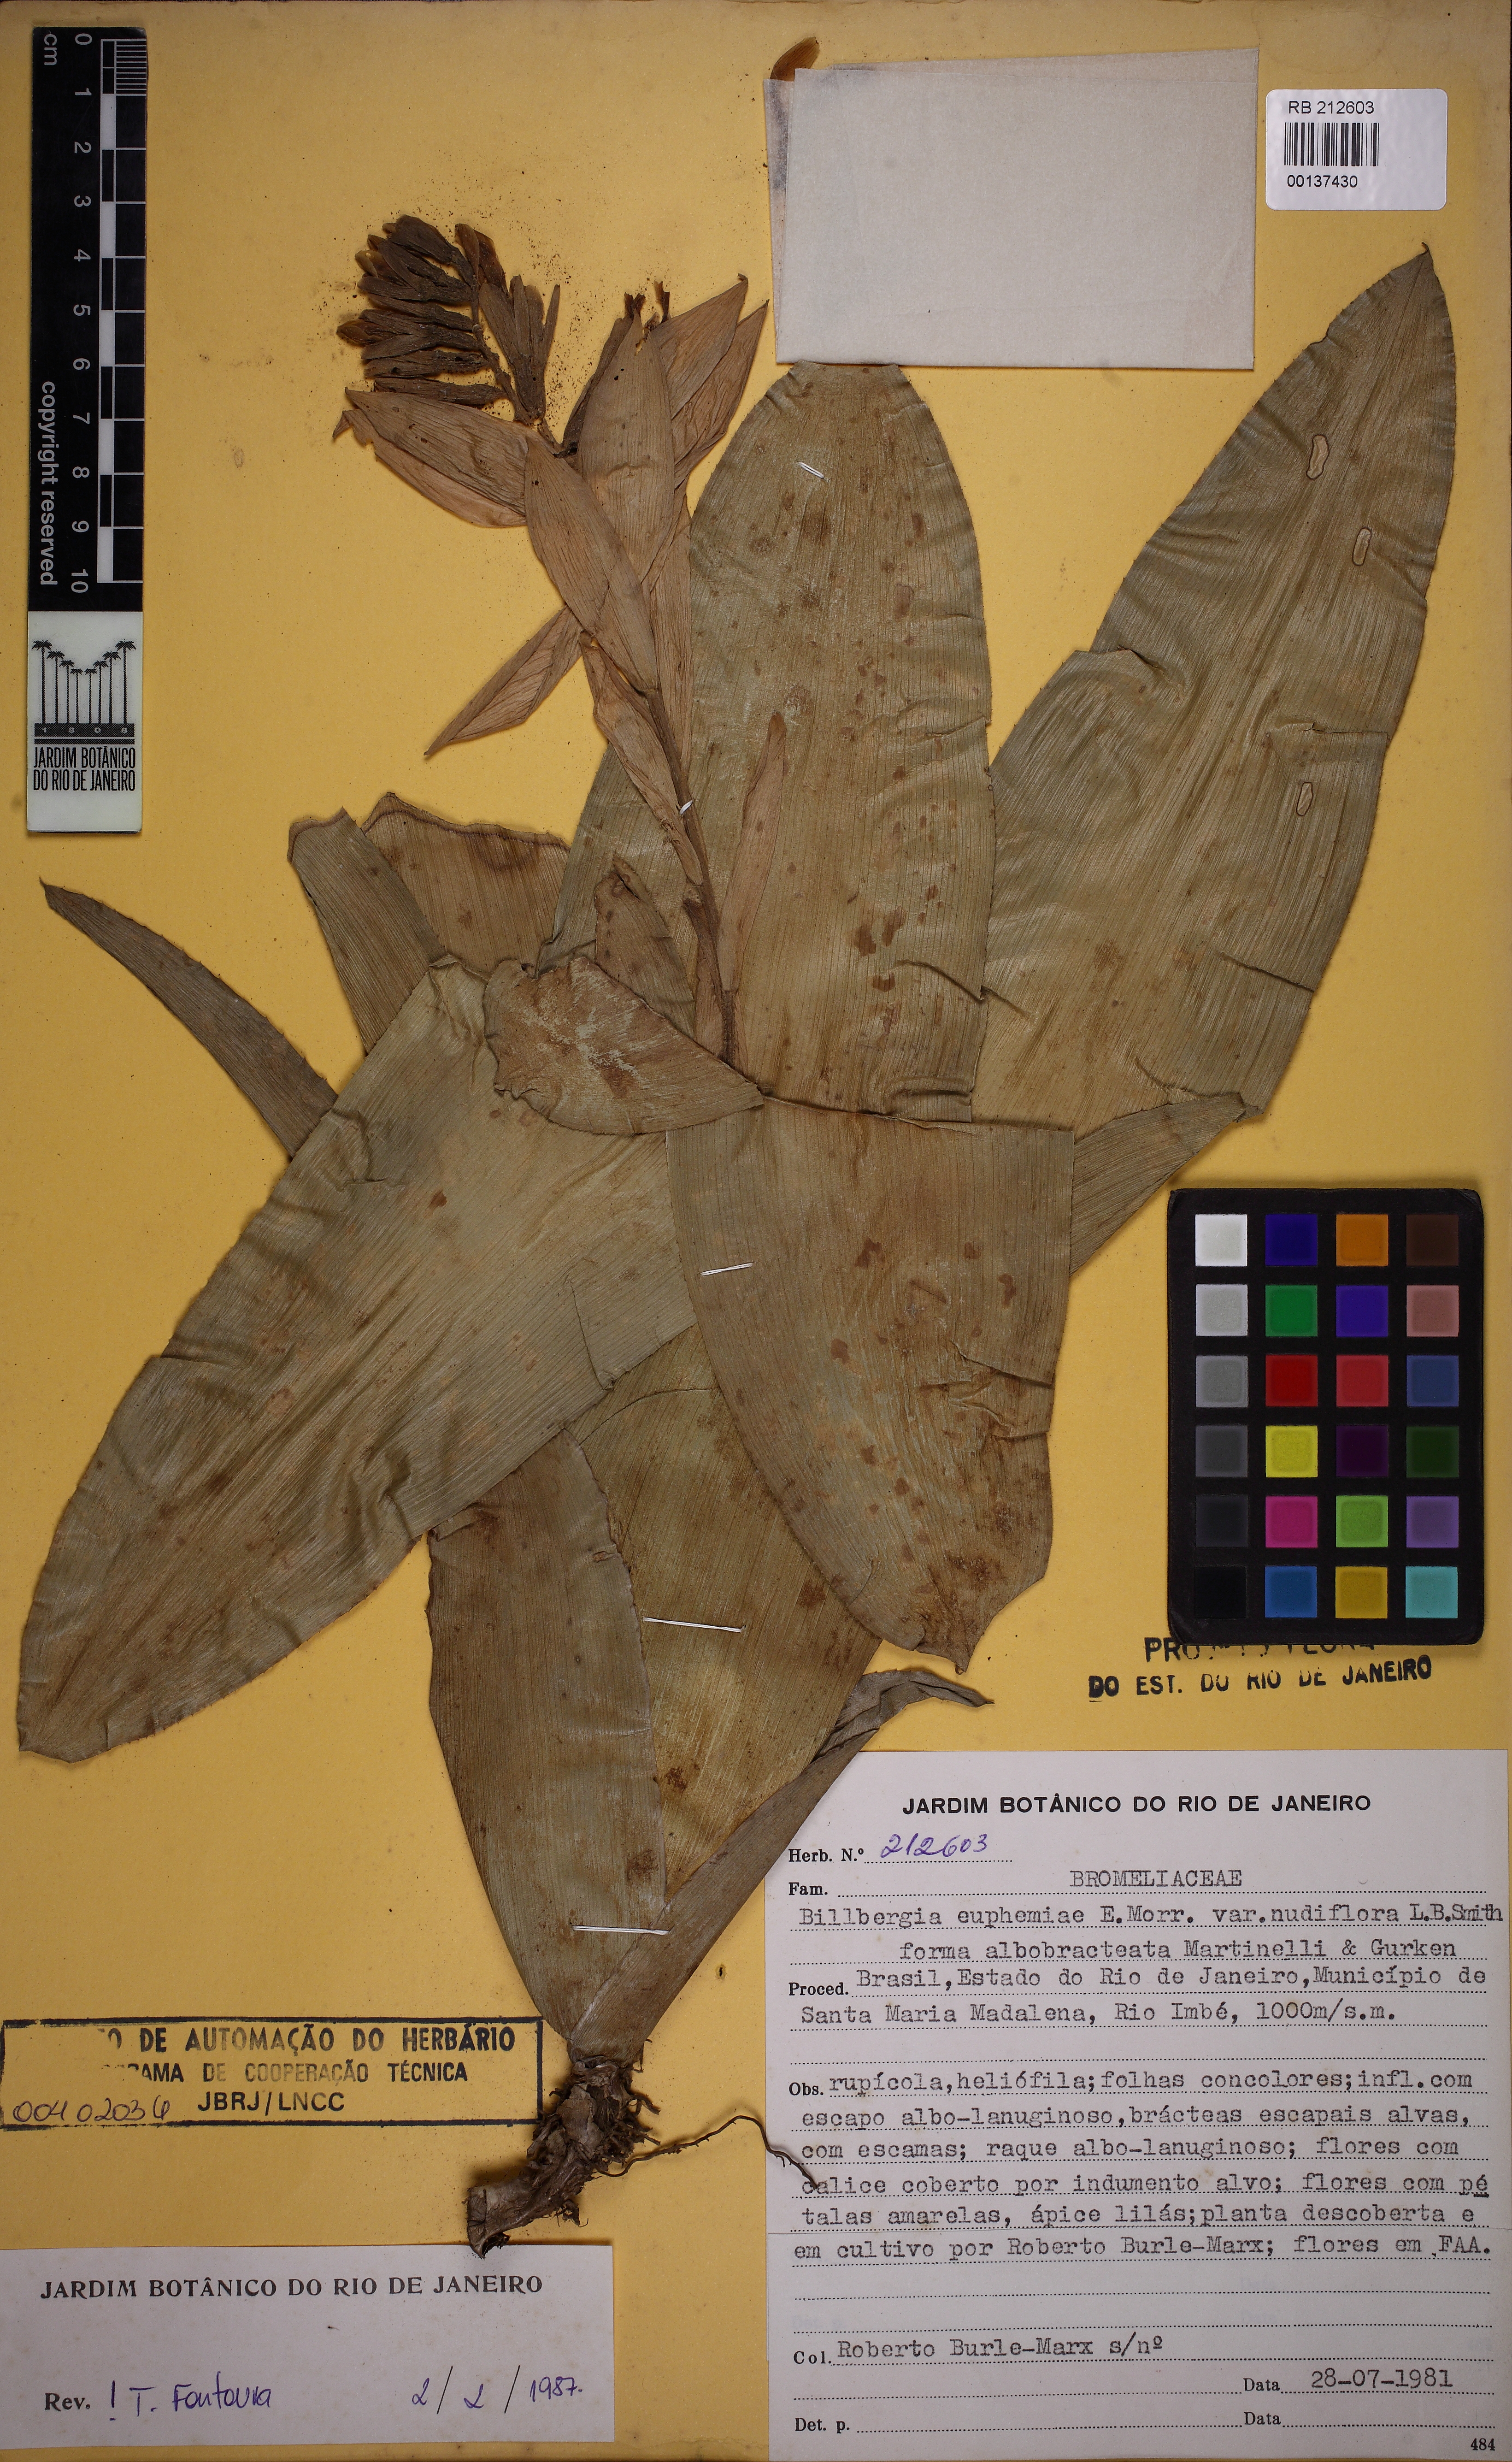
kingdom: Plantae
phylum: Tracheophyta
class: Liliopsida
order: Poales
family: Bromeliaceae
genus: Billbergia
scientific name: Billbergia euphemiae
